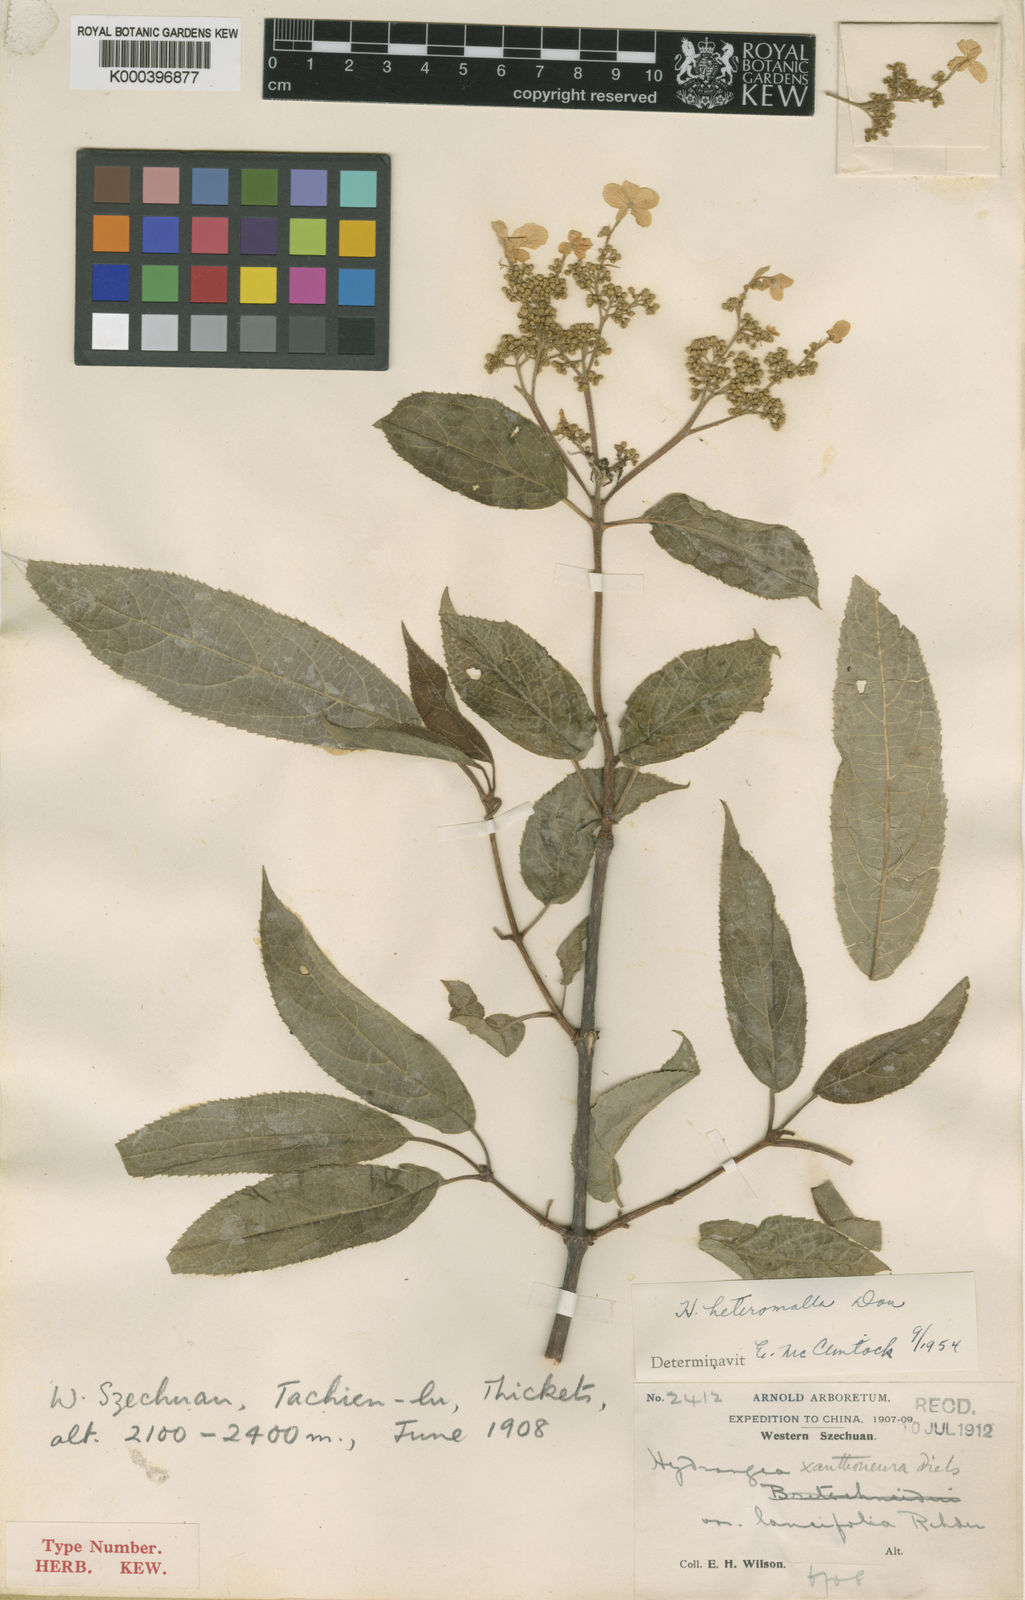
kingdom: Plantae
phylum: Tracheophyta
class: Magnoliopsida
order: Cornales
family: Hydrangeaceae
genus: Hydrangea
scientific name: Hydrangea heteromalla
